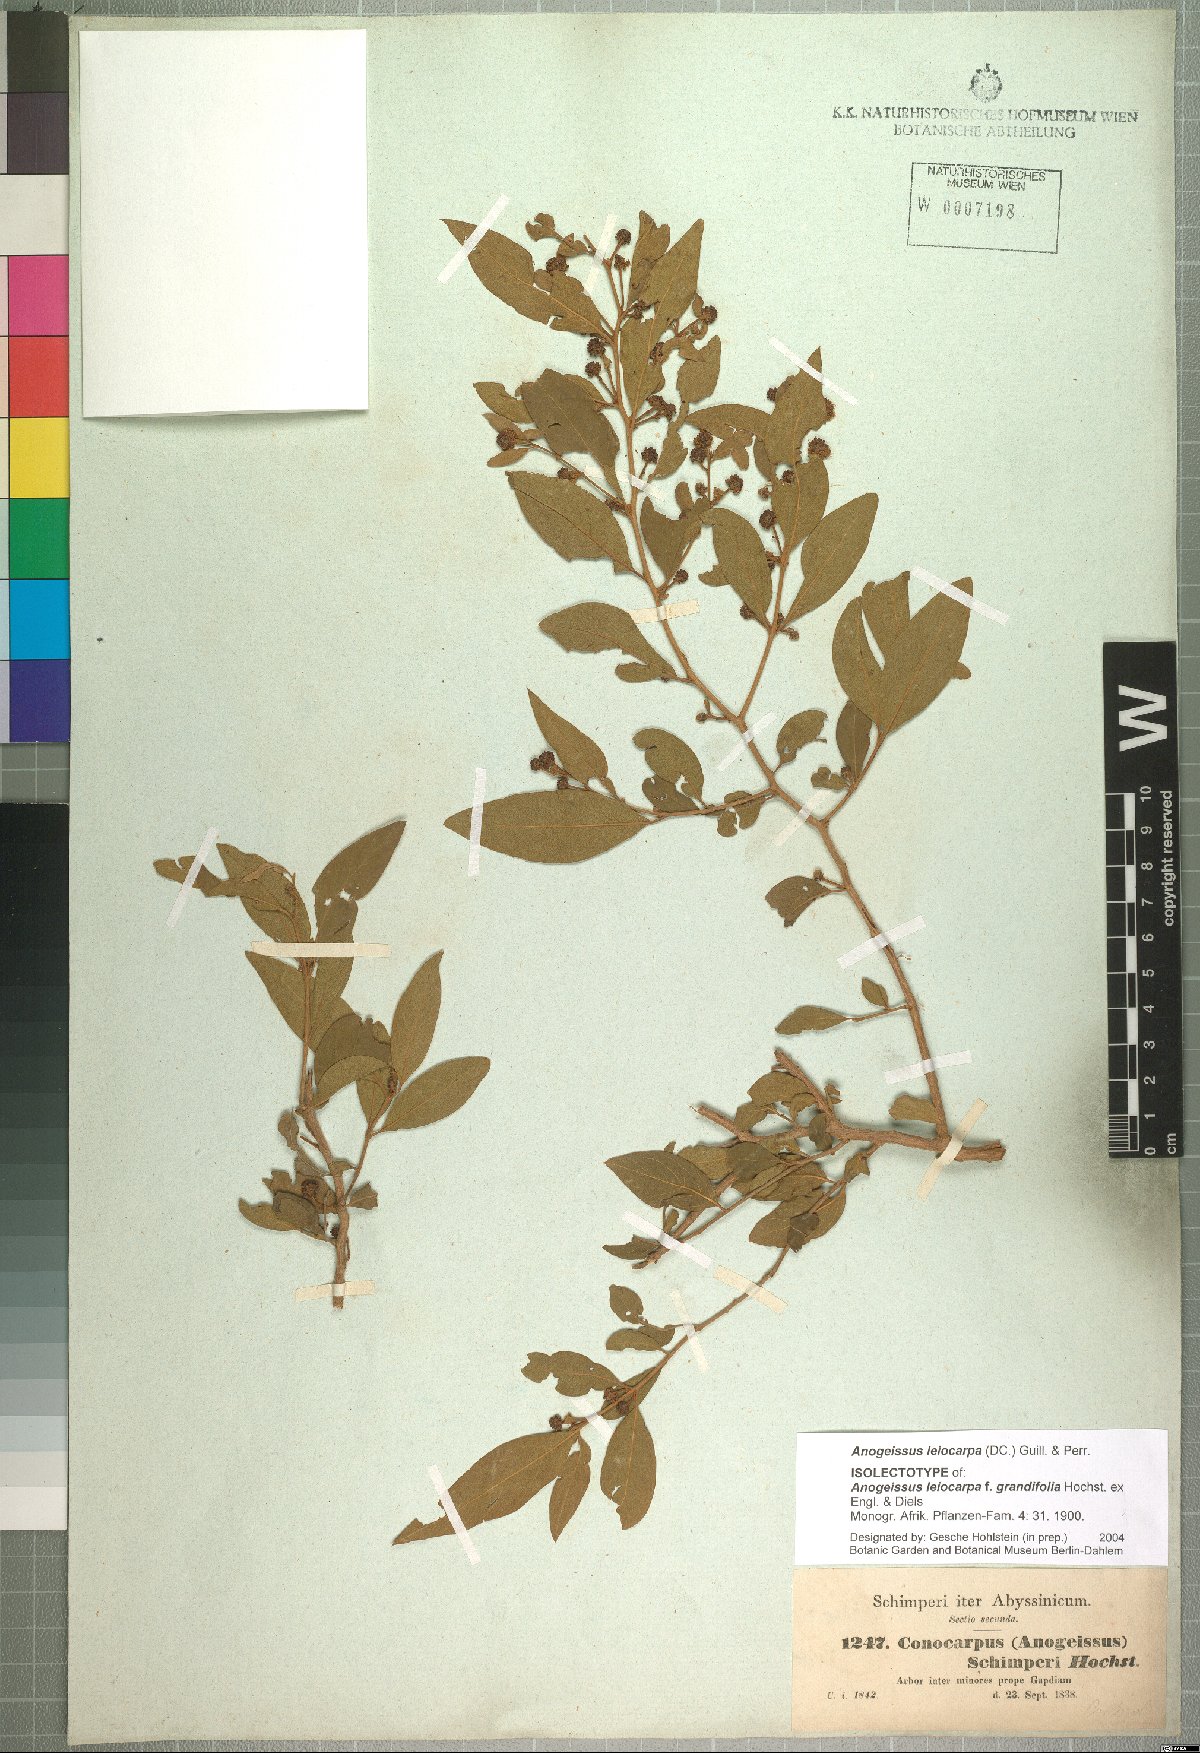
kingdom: Plantae
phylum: Tracheophyta
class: Magnoliopsida
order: Myrtales
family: Combretaceae
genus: Terminalia
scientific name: Terminalia leiocarpa
